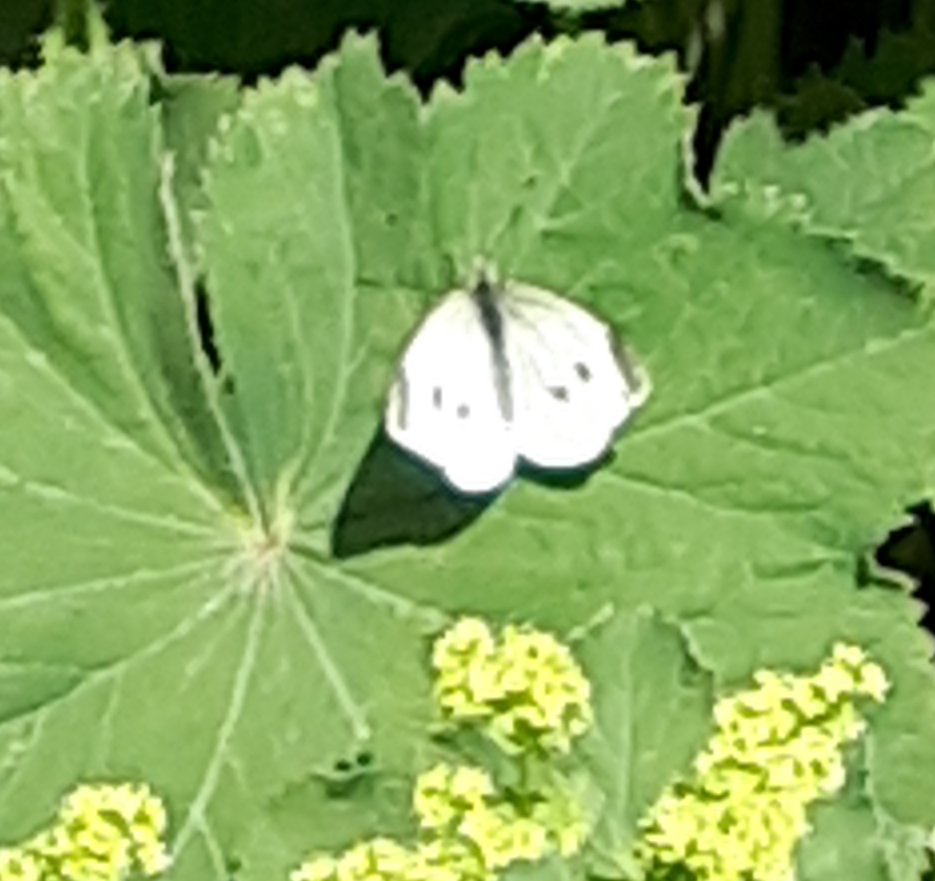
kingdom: Animalia
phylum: Arthropoda
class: Insecta
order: Lepidoptera
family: Pieridae
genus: Pieris
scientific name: Pieris rapae
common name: Cabbage White
